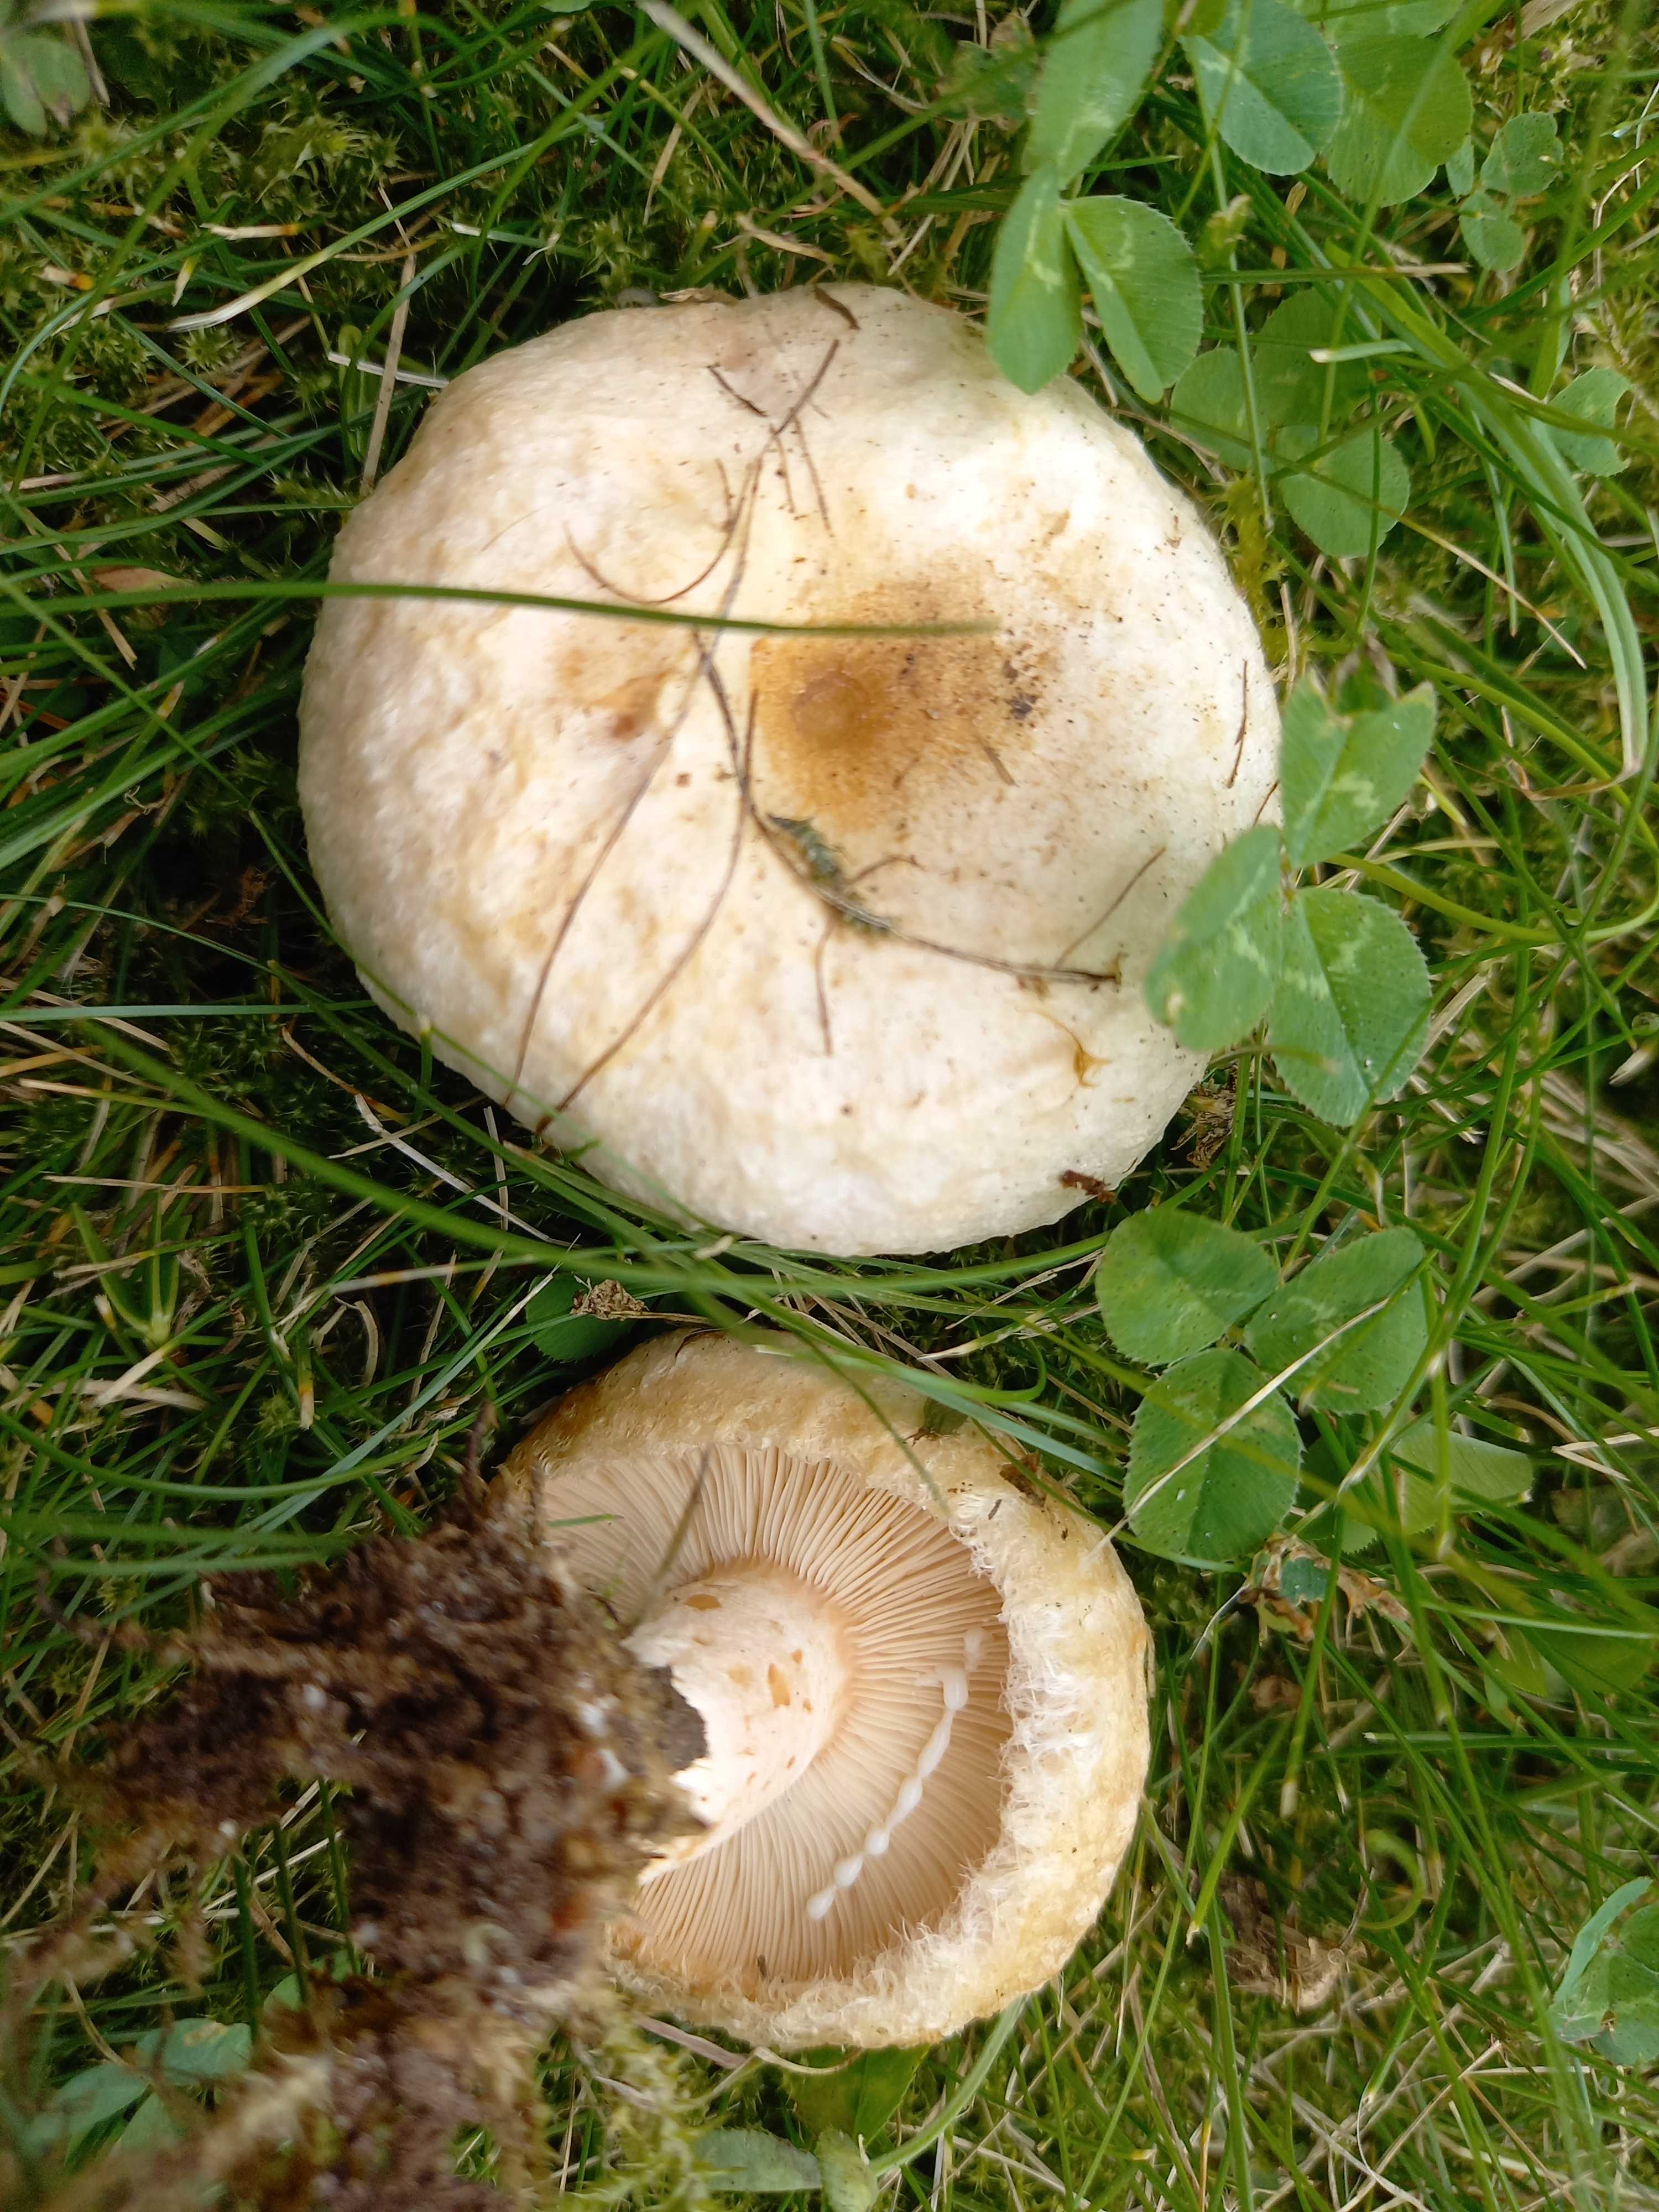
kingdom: Fungi
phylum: Basidiomycota
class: Agaricomycetes
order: Russulales
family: Russulaceae
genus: Lactarius
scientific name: Lactarius pubescens
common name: dunet mælkehat
